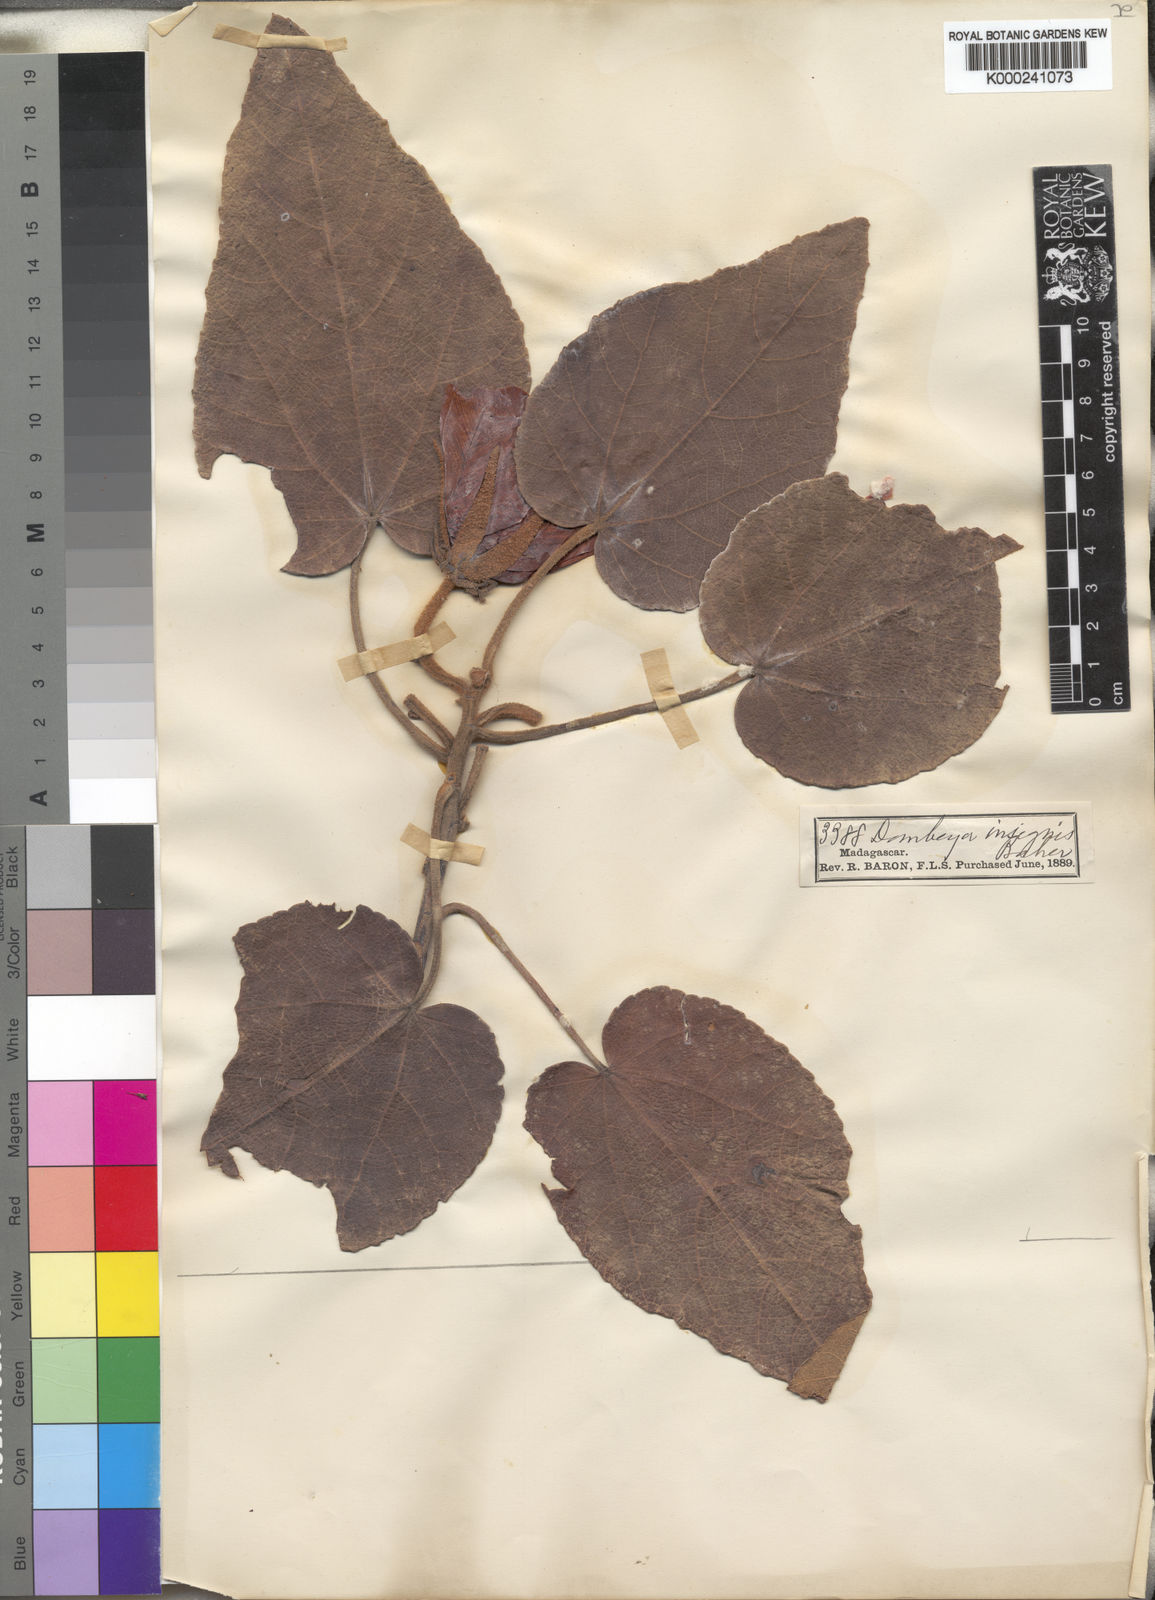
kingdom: Plantae
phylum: Tracheophyta
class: Magnoliopsida
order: Malvales
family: Malvaceae
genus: Andringitra
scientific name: Andringitra macrantha
